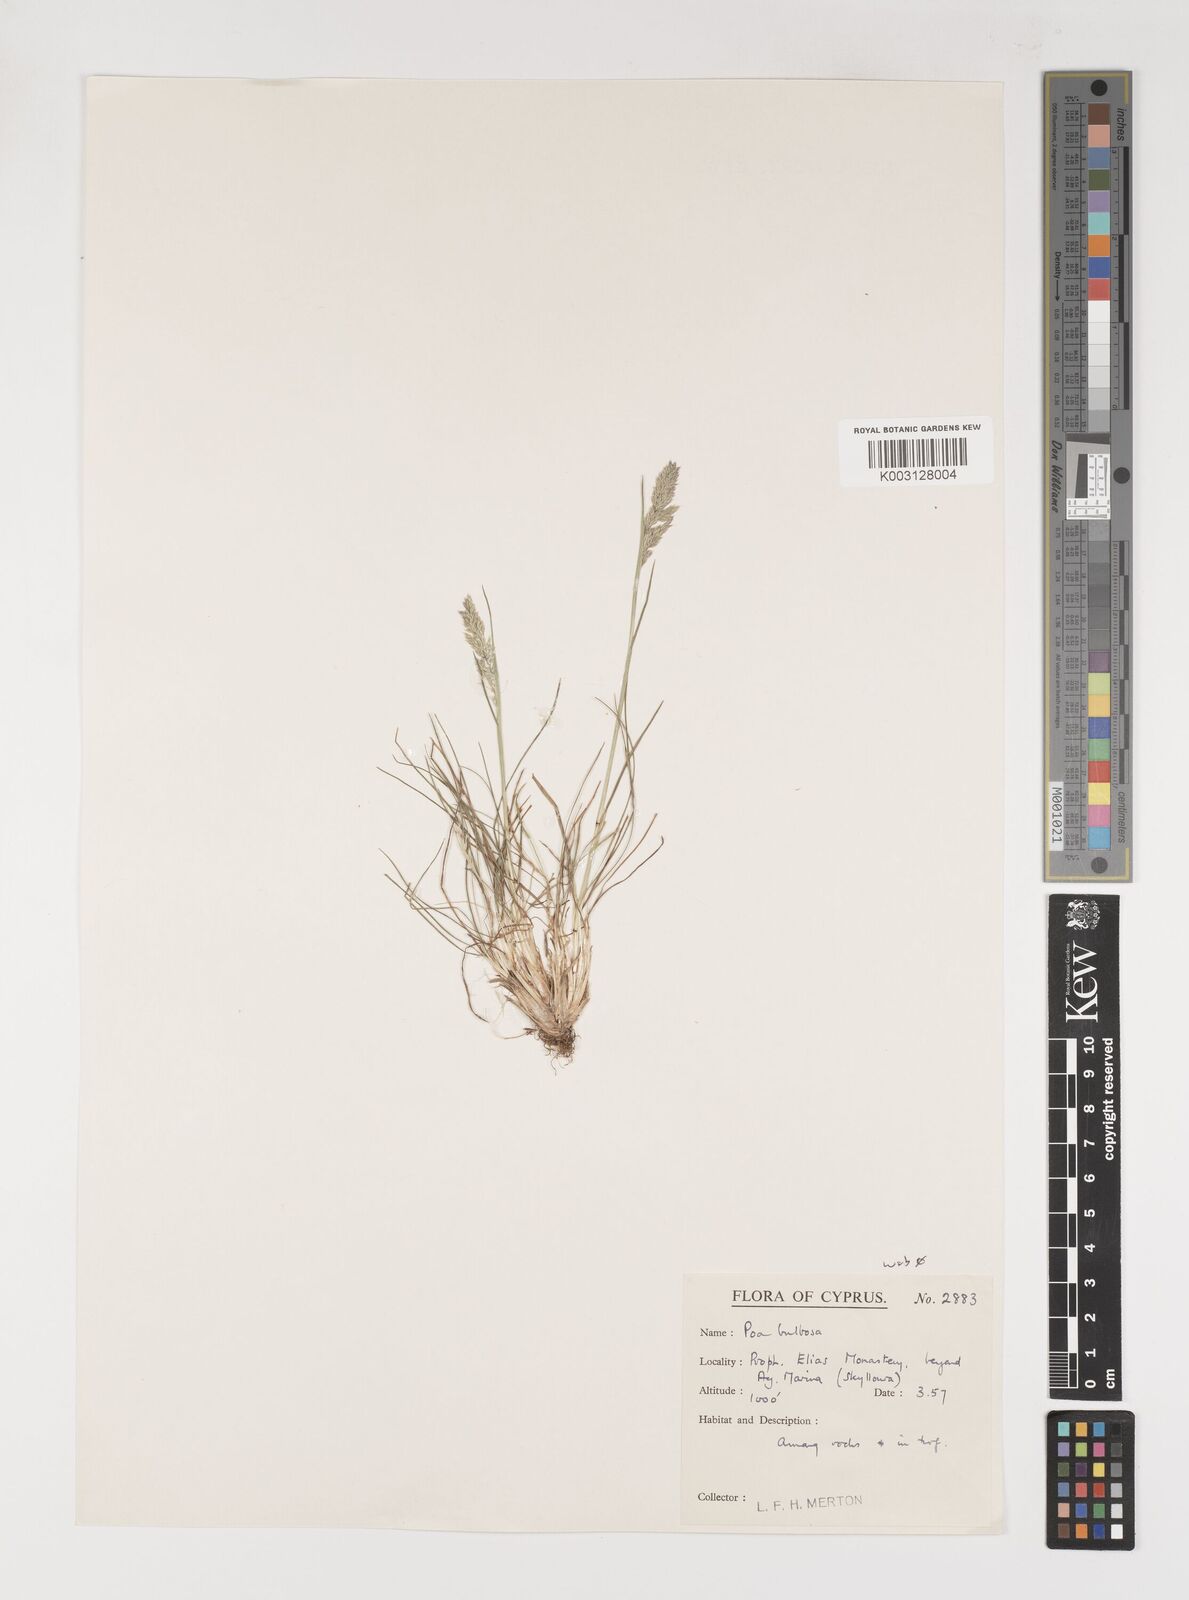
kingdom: Plantae
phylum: Tracheophyta
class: Liliopsida
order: Poales
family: Poaceae
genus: Poa
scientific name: Poa bulbosa
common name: Bulbous bluegrass
